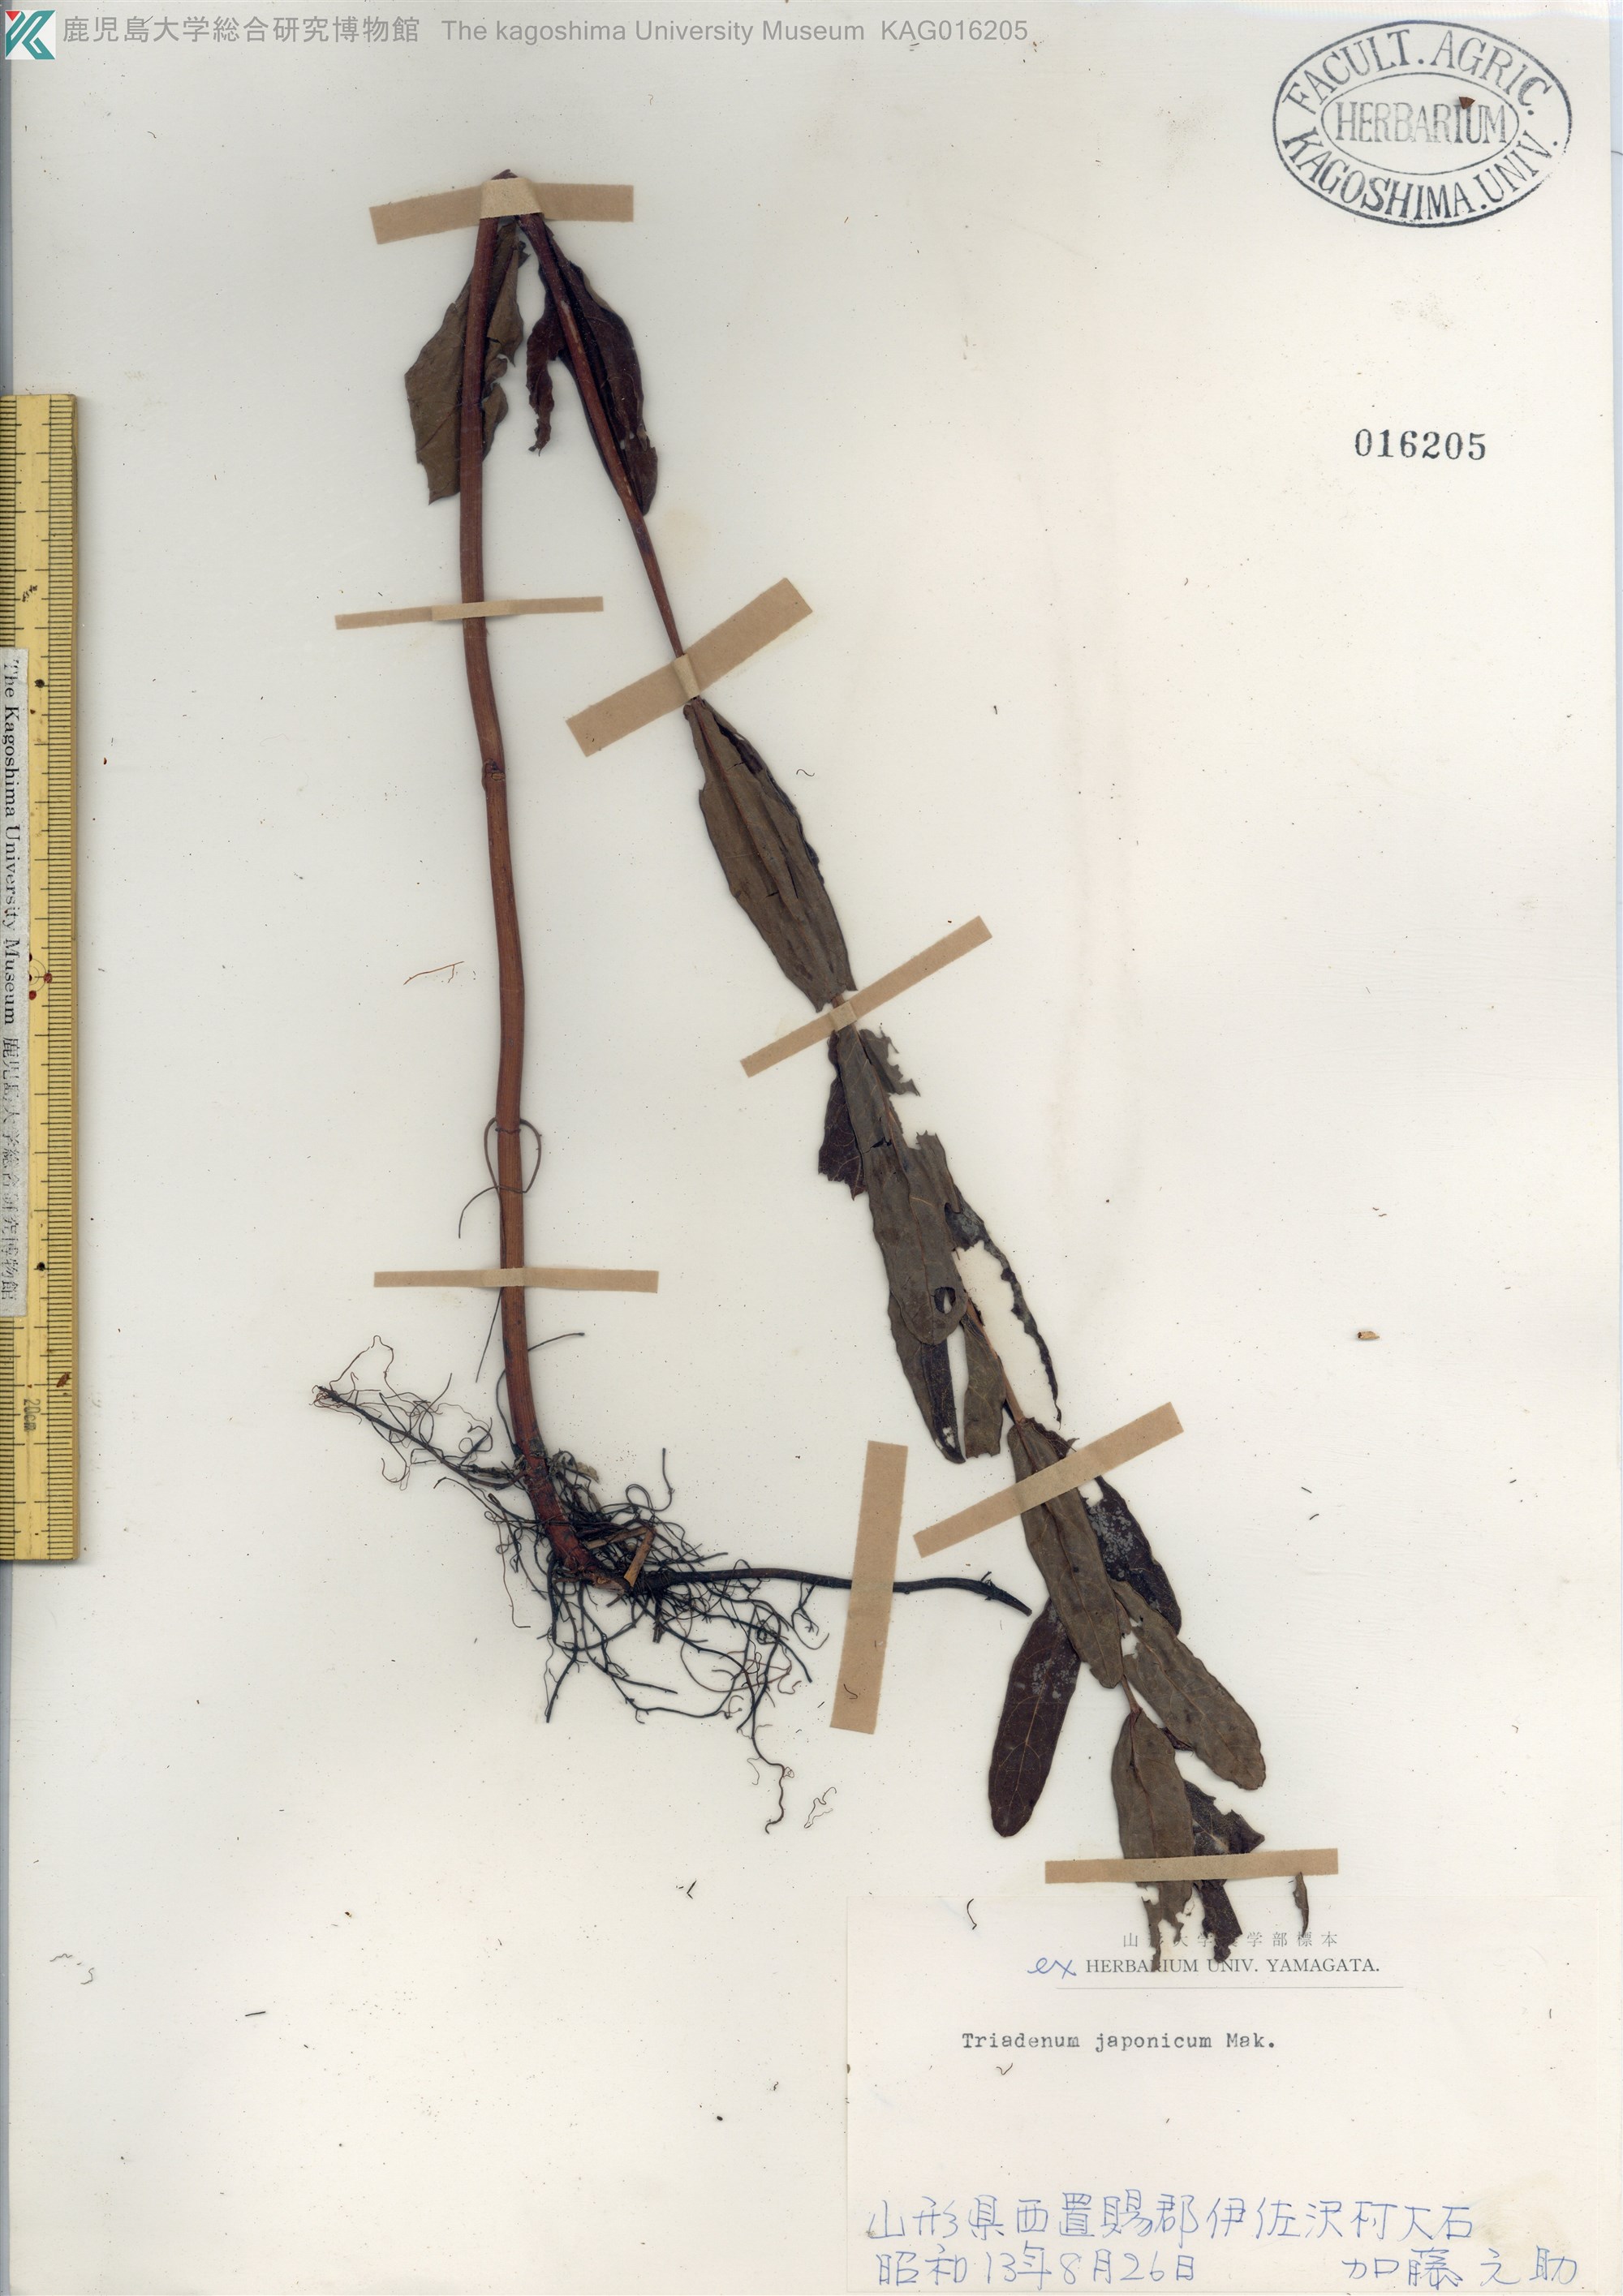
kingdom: Plantae
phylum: Tracheophyta
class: Magnoliopsida
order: Malpighiales
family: Hypericaceae
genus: Triadenum
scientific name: Triadenum japonicum
